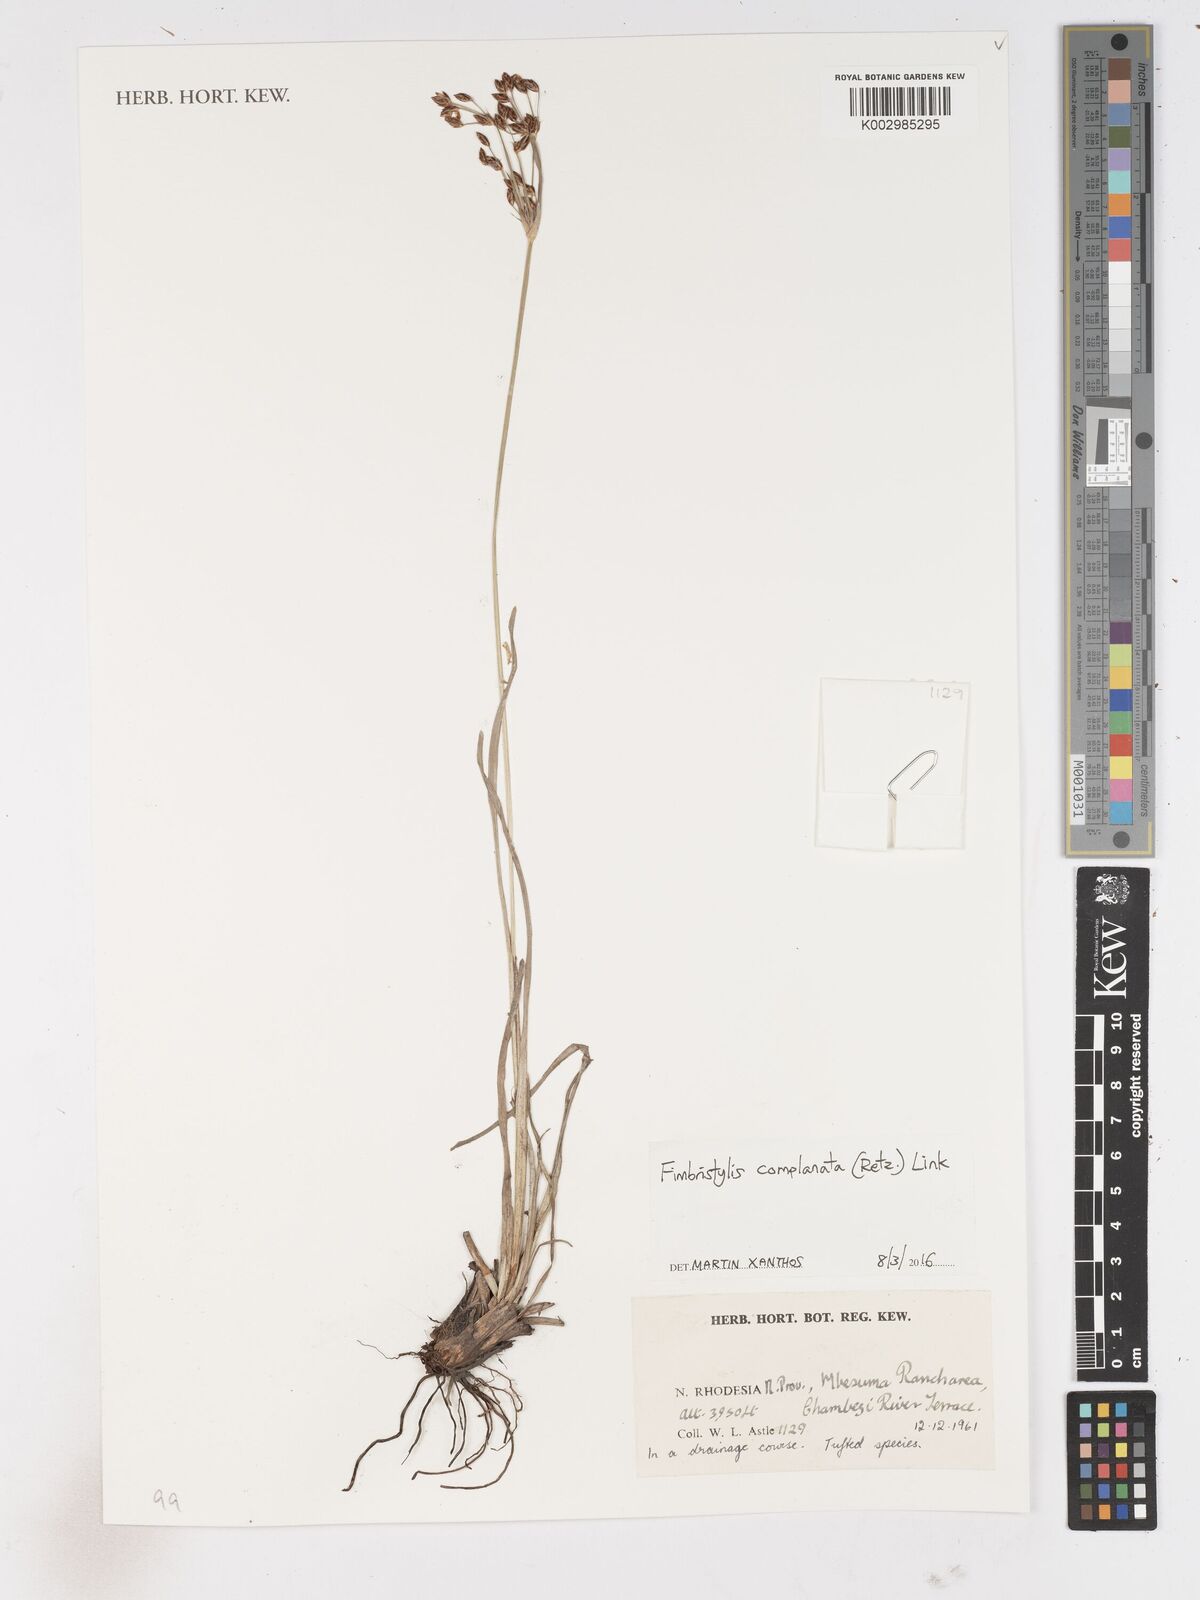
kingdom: Plantae
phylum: Tracheophyta
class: Liliopsida
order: Poales
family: Cyperaceae
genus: Fimbristylis
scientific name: Fimbristylis complanata
